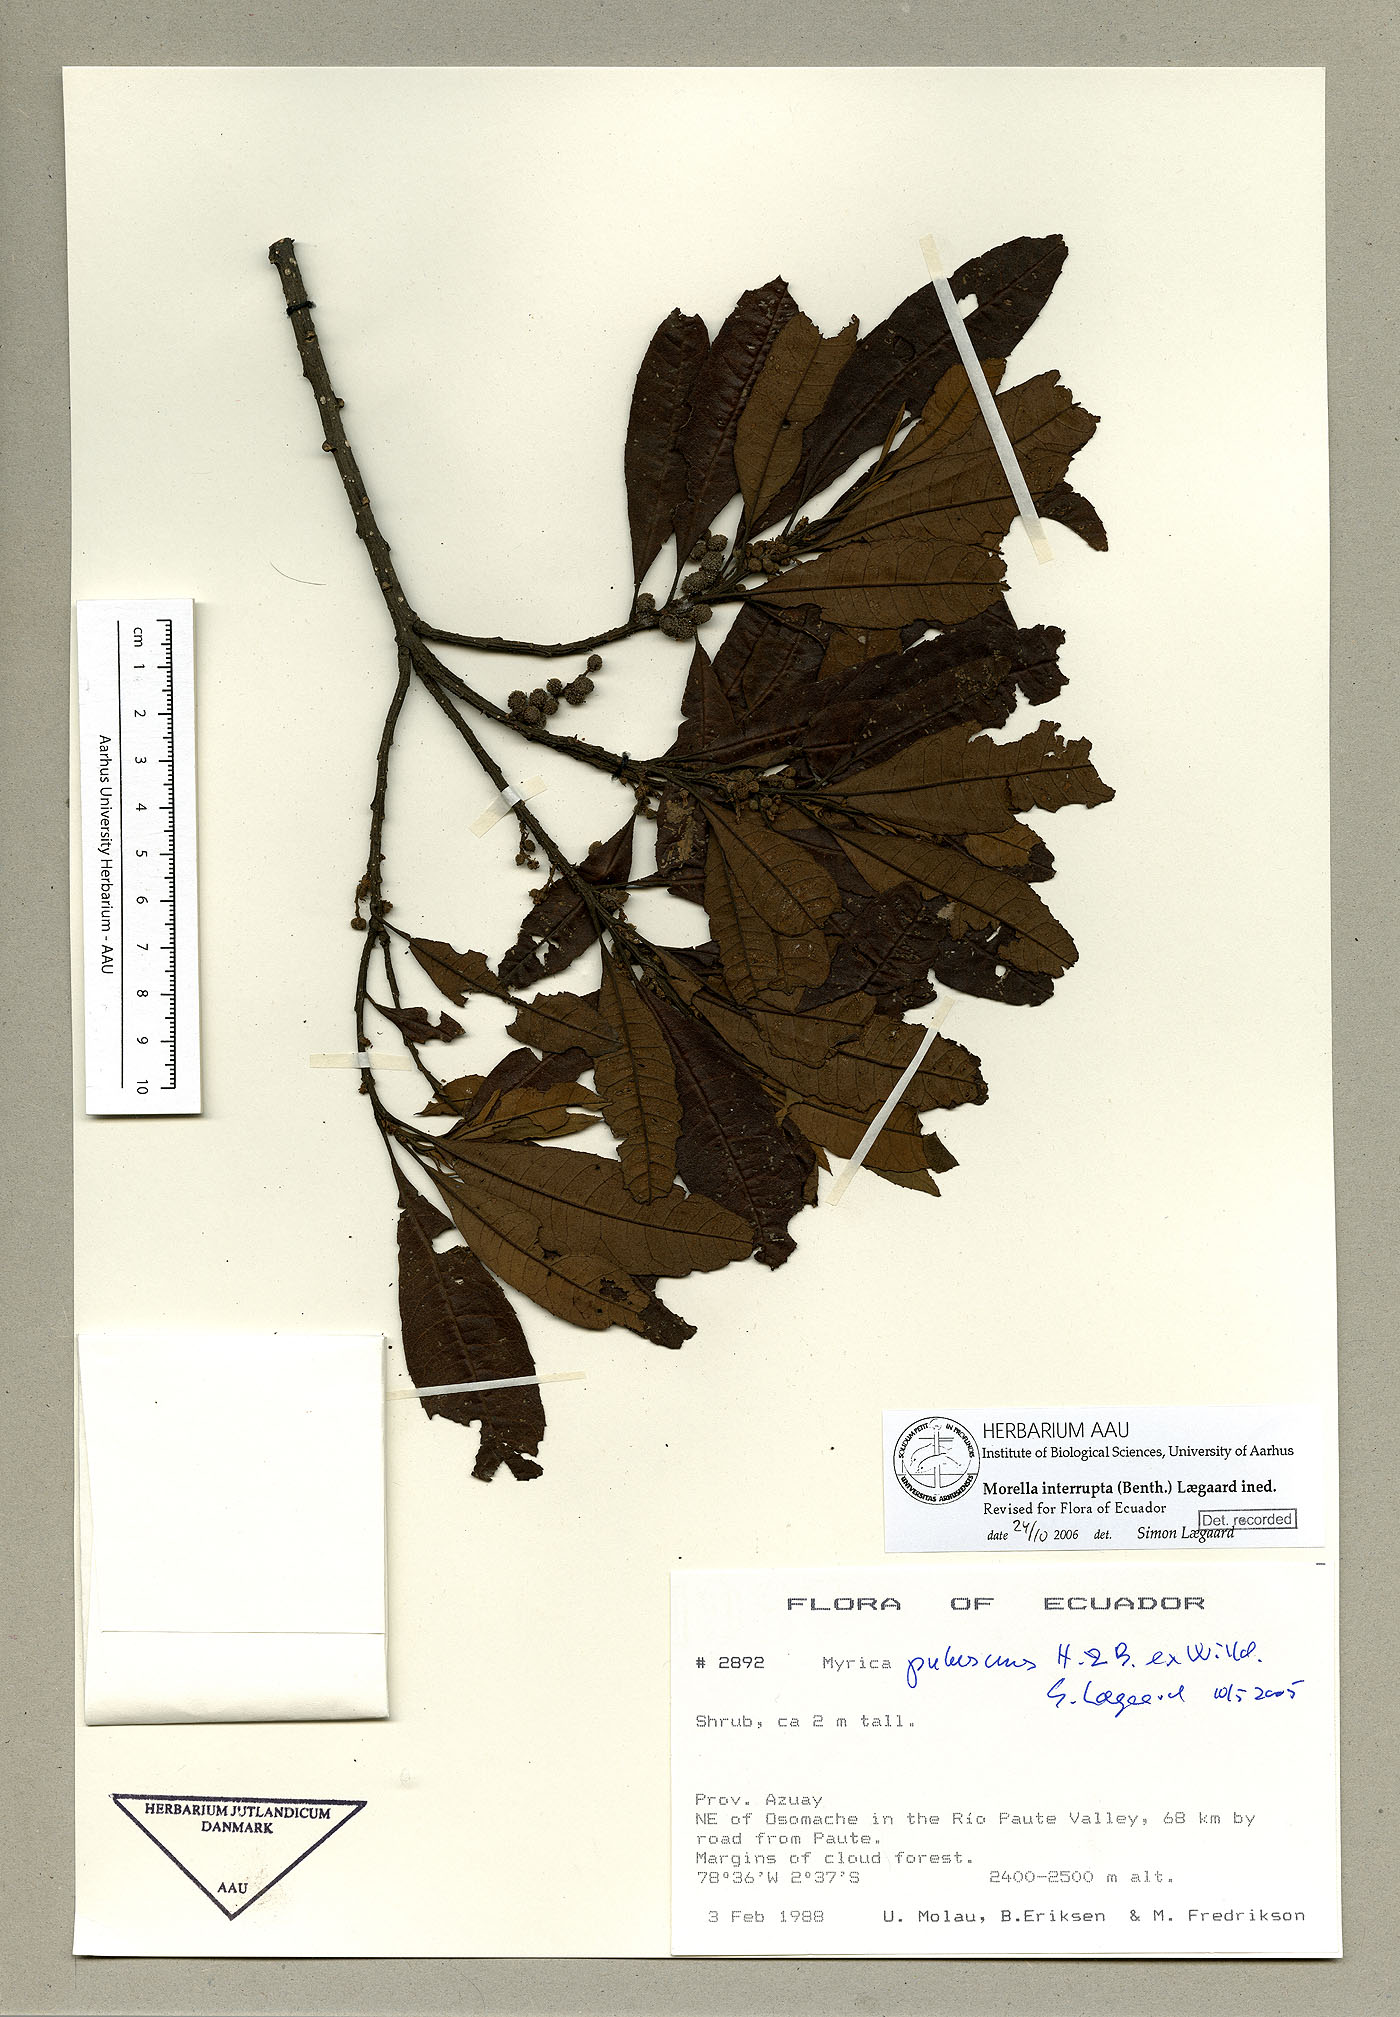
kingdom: Plantae
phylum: Tracheophyta
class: Magnoliopsida
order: Fagales
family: Myricaceae
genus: Morella
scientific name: Morella interrupta
